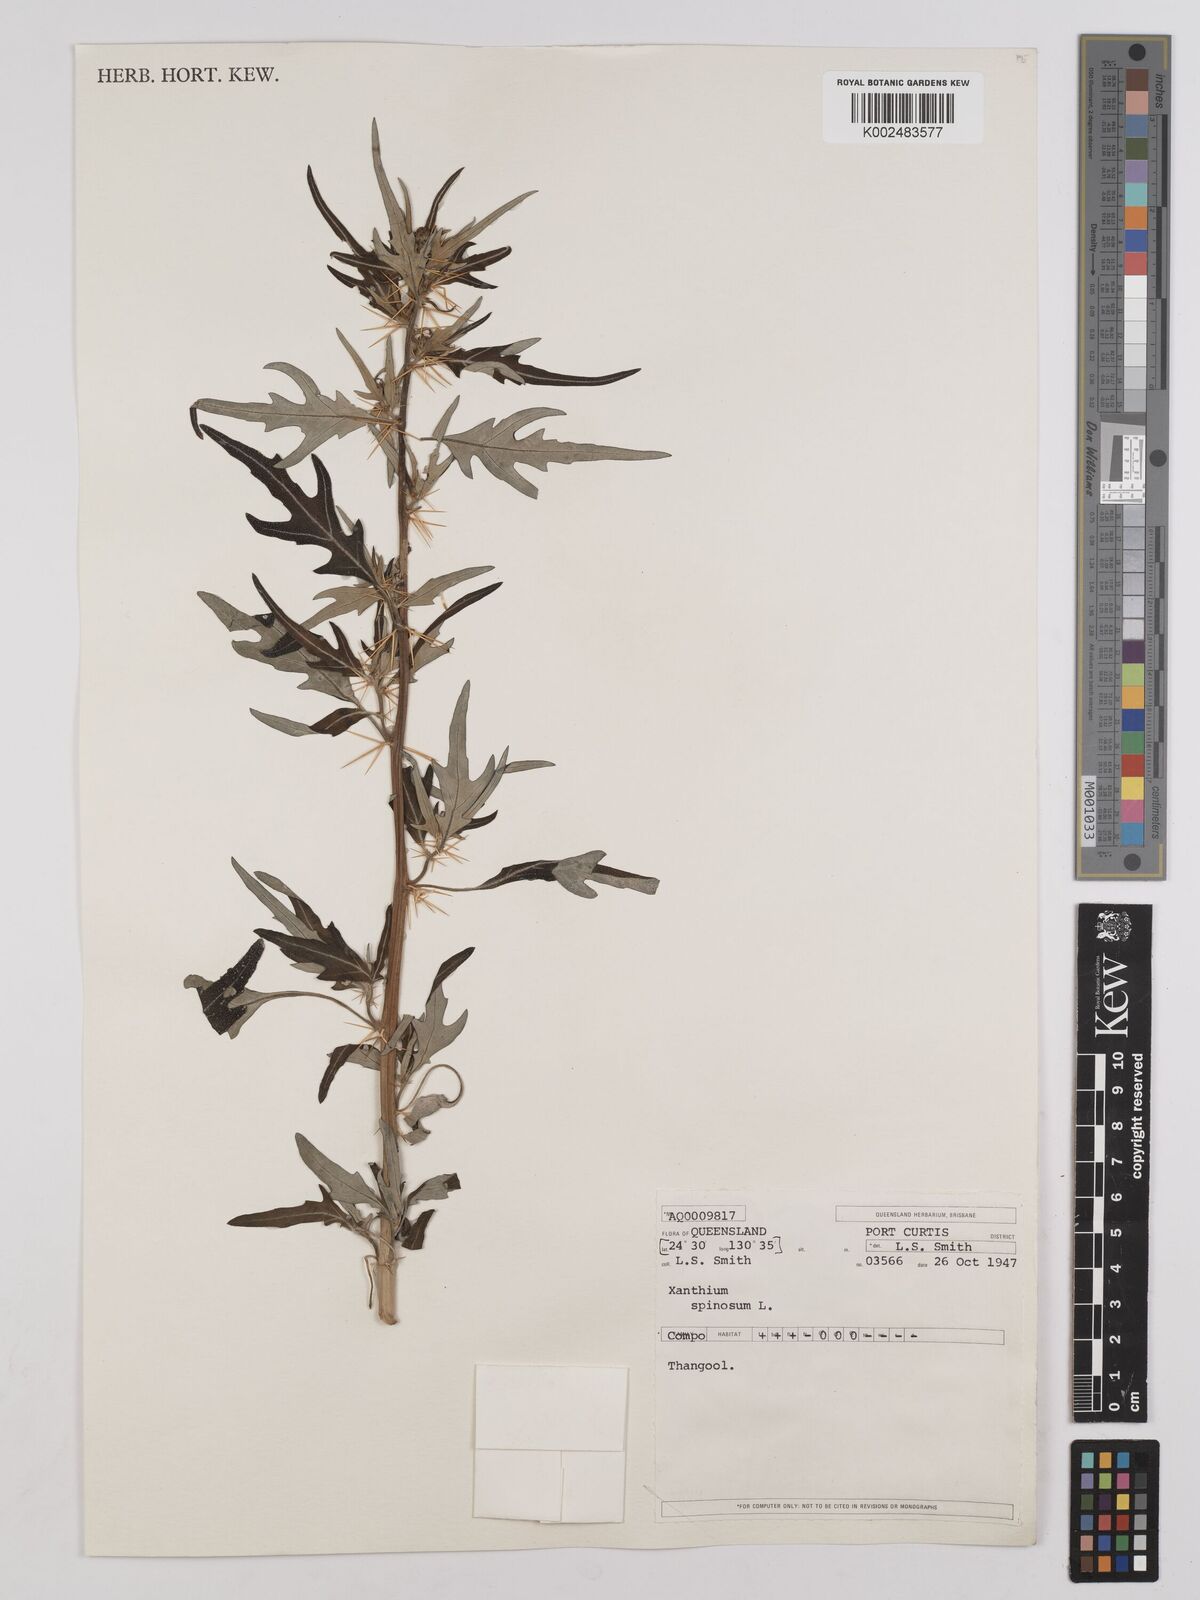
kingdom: Plantae
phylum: Tracheophyta
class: Magnoliopsida
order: Asterales
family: Asteraceae
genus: Xanthium
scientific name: Xanthium spinosum
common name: Spiny cocklebur
